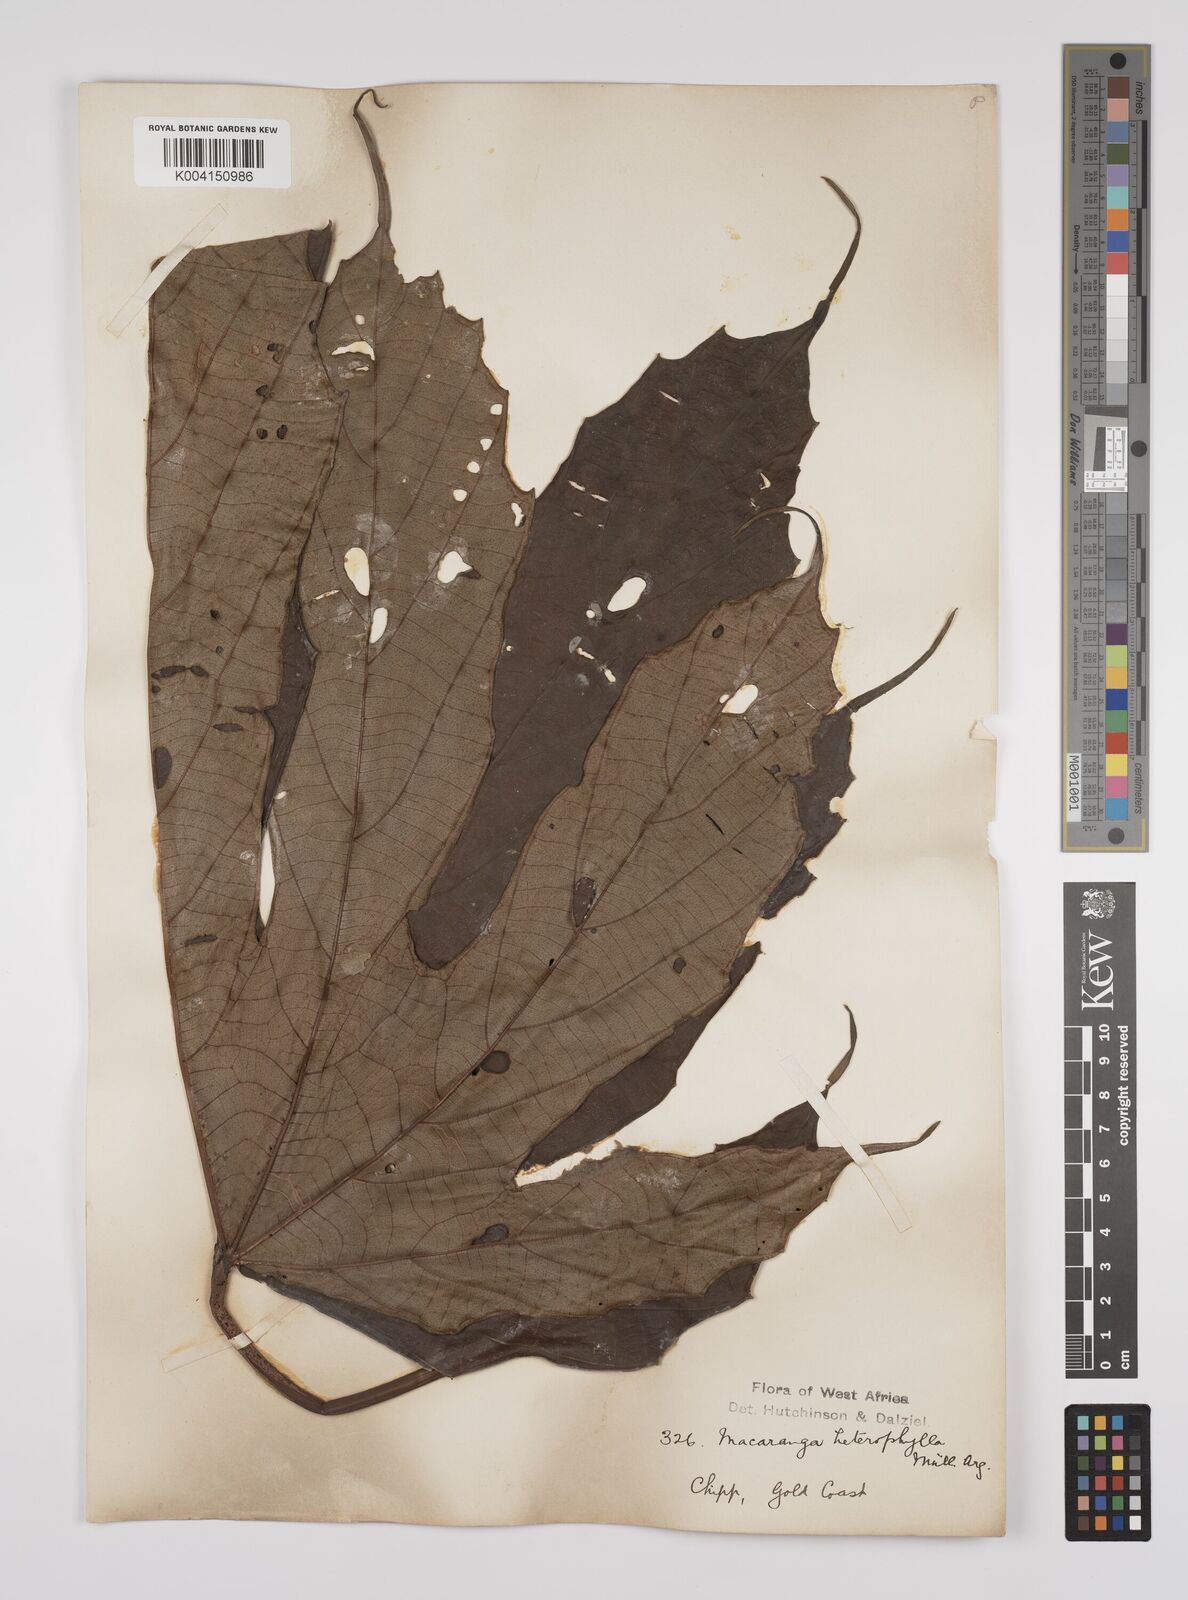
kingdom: Plantae
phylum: Tracheophyta
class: Magnoliopsida
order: Malpighiales
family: Euphorbiaceae
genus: Macaranga
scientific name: Macaranga heterophylla
